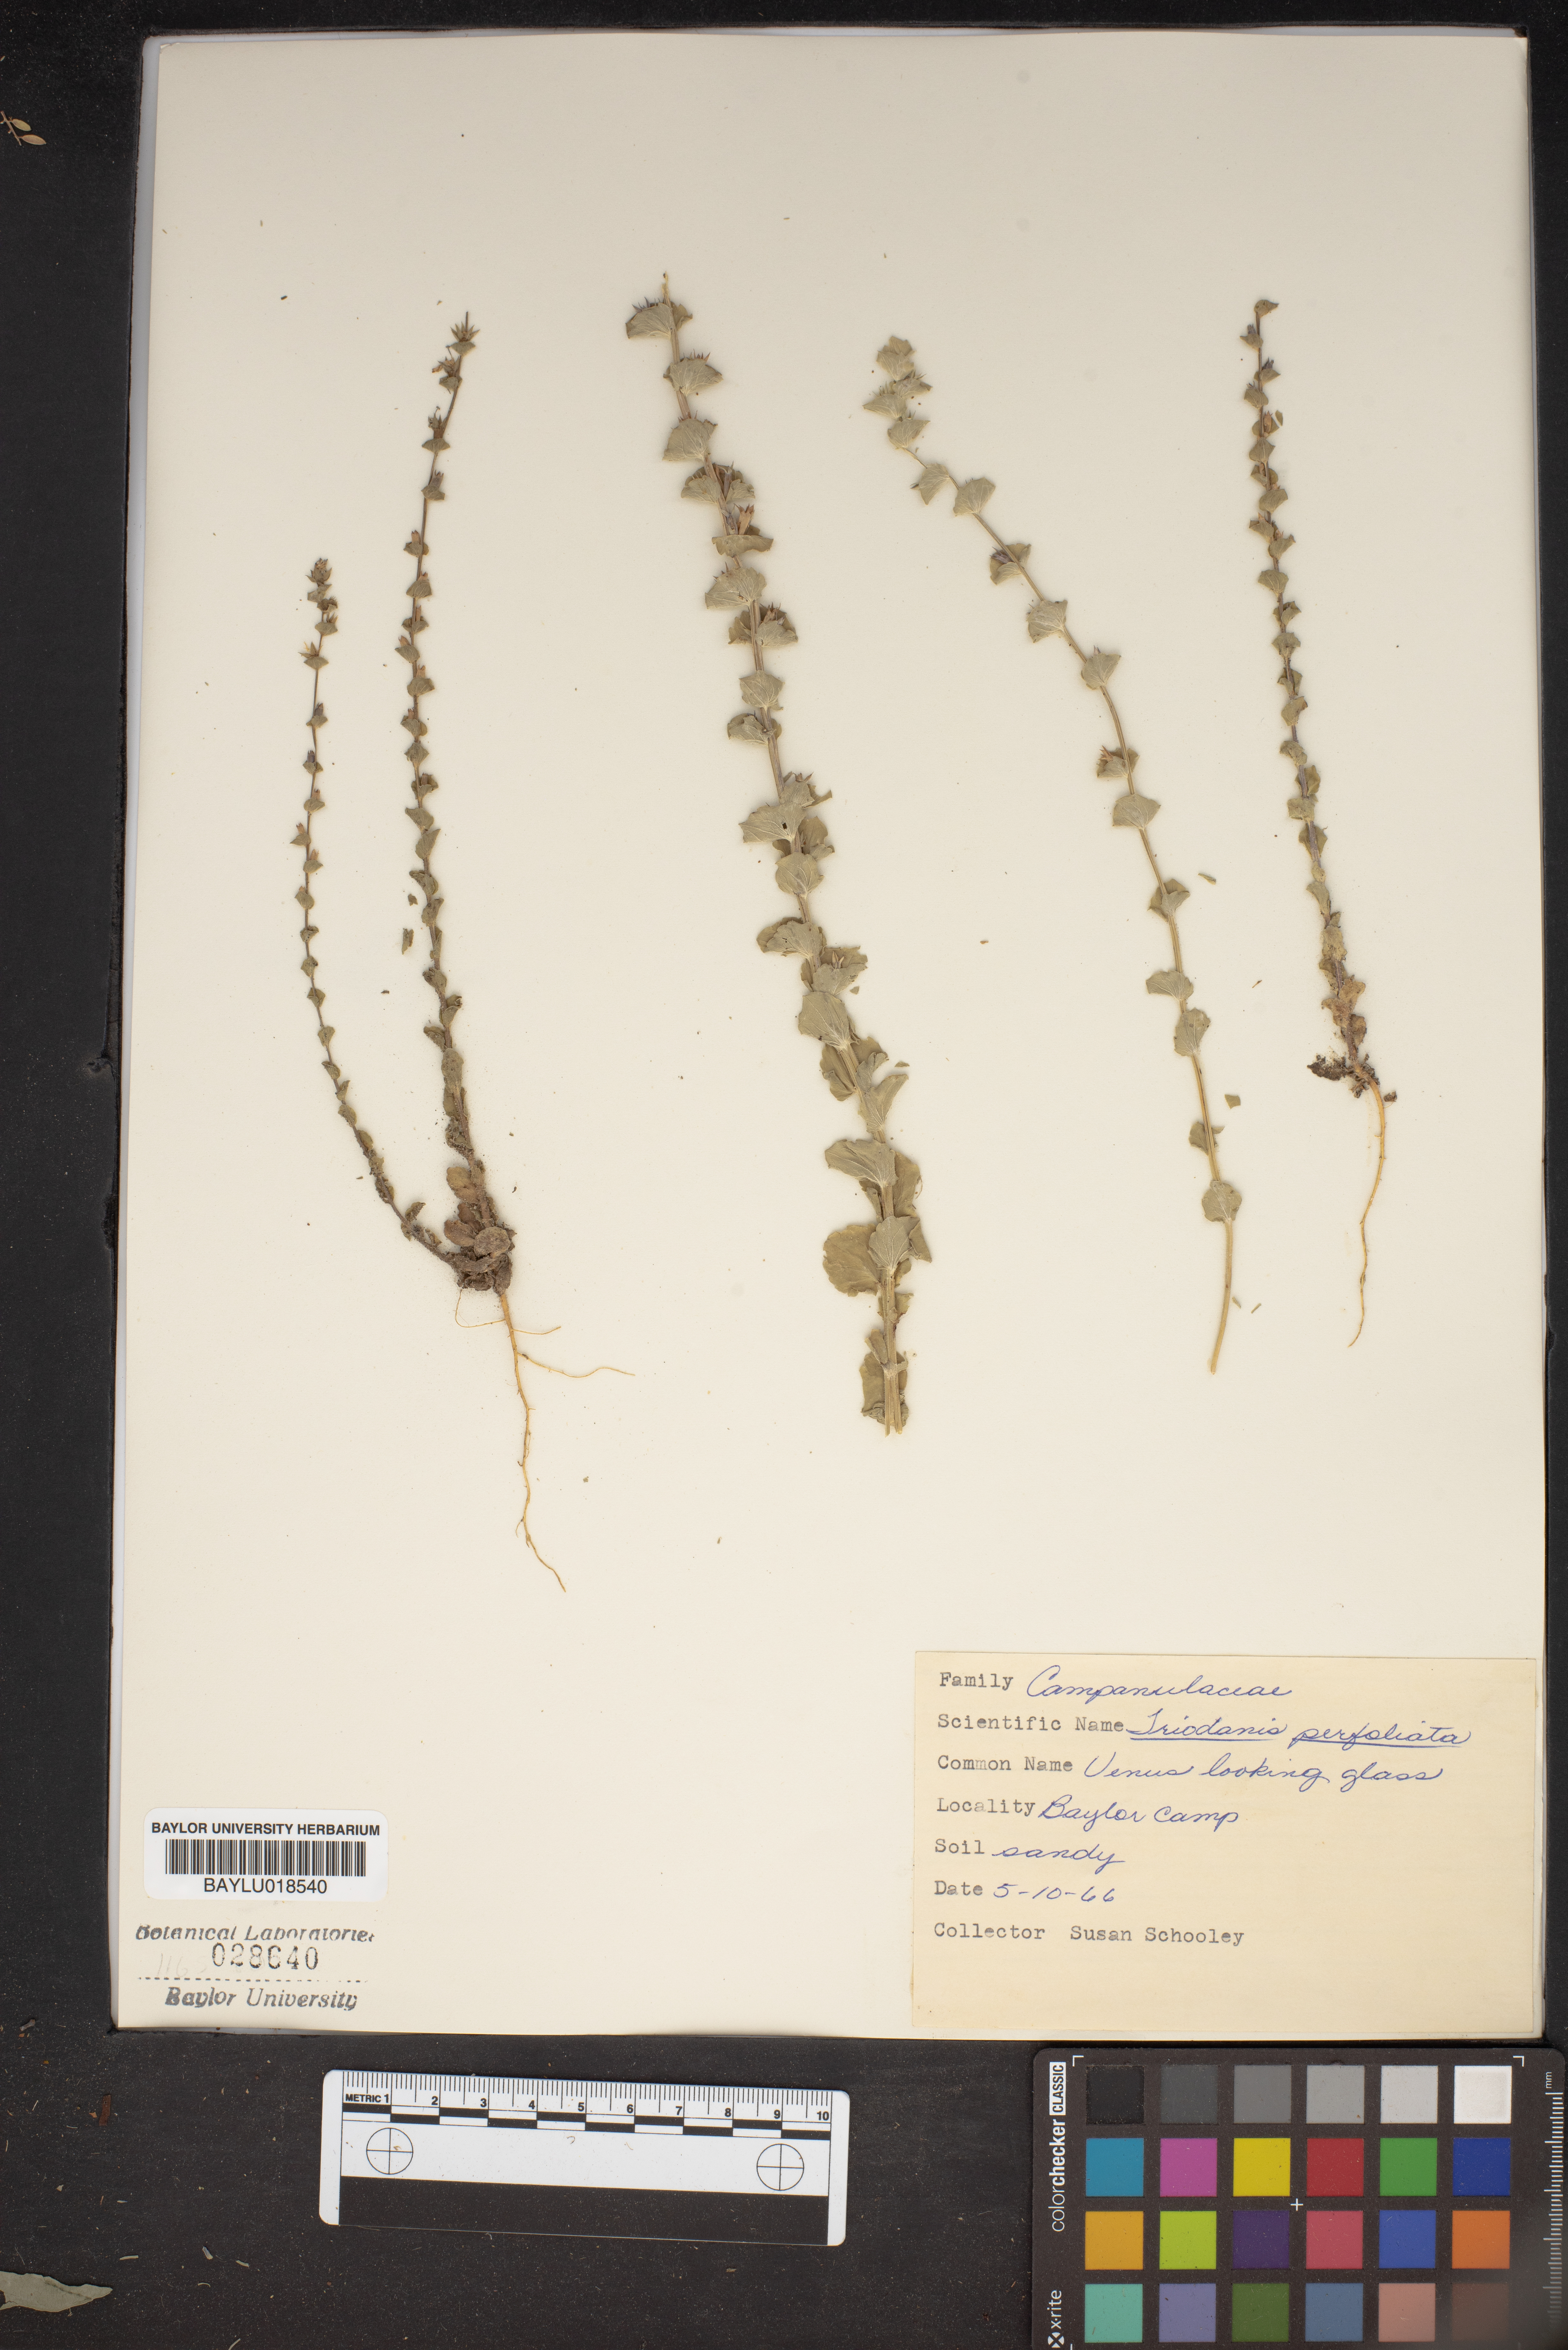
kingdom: Plantae
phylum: Tracheophyta
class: Magnoliopsida
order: Asterales
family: Campanulaceae
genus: Triodanis
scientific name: Triodanis perfoliata
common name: Clasping venus' looking-glass
